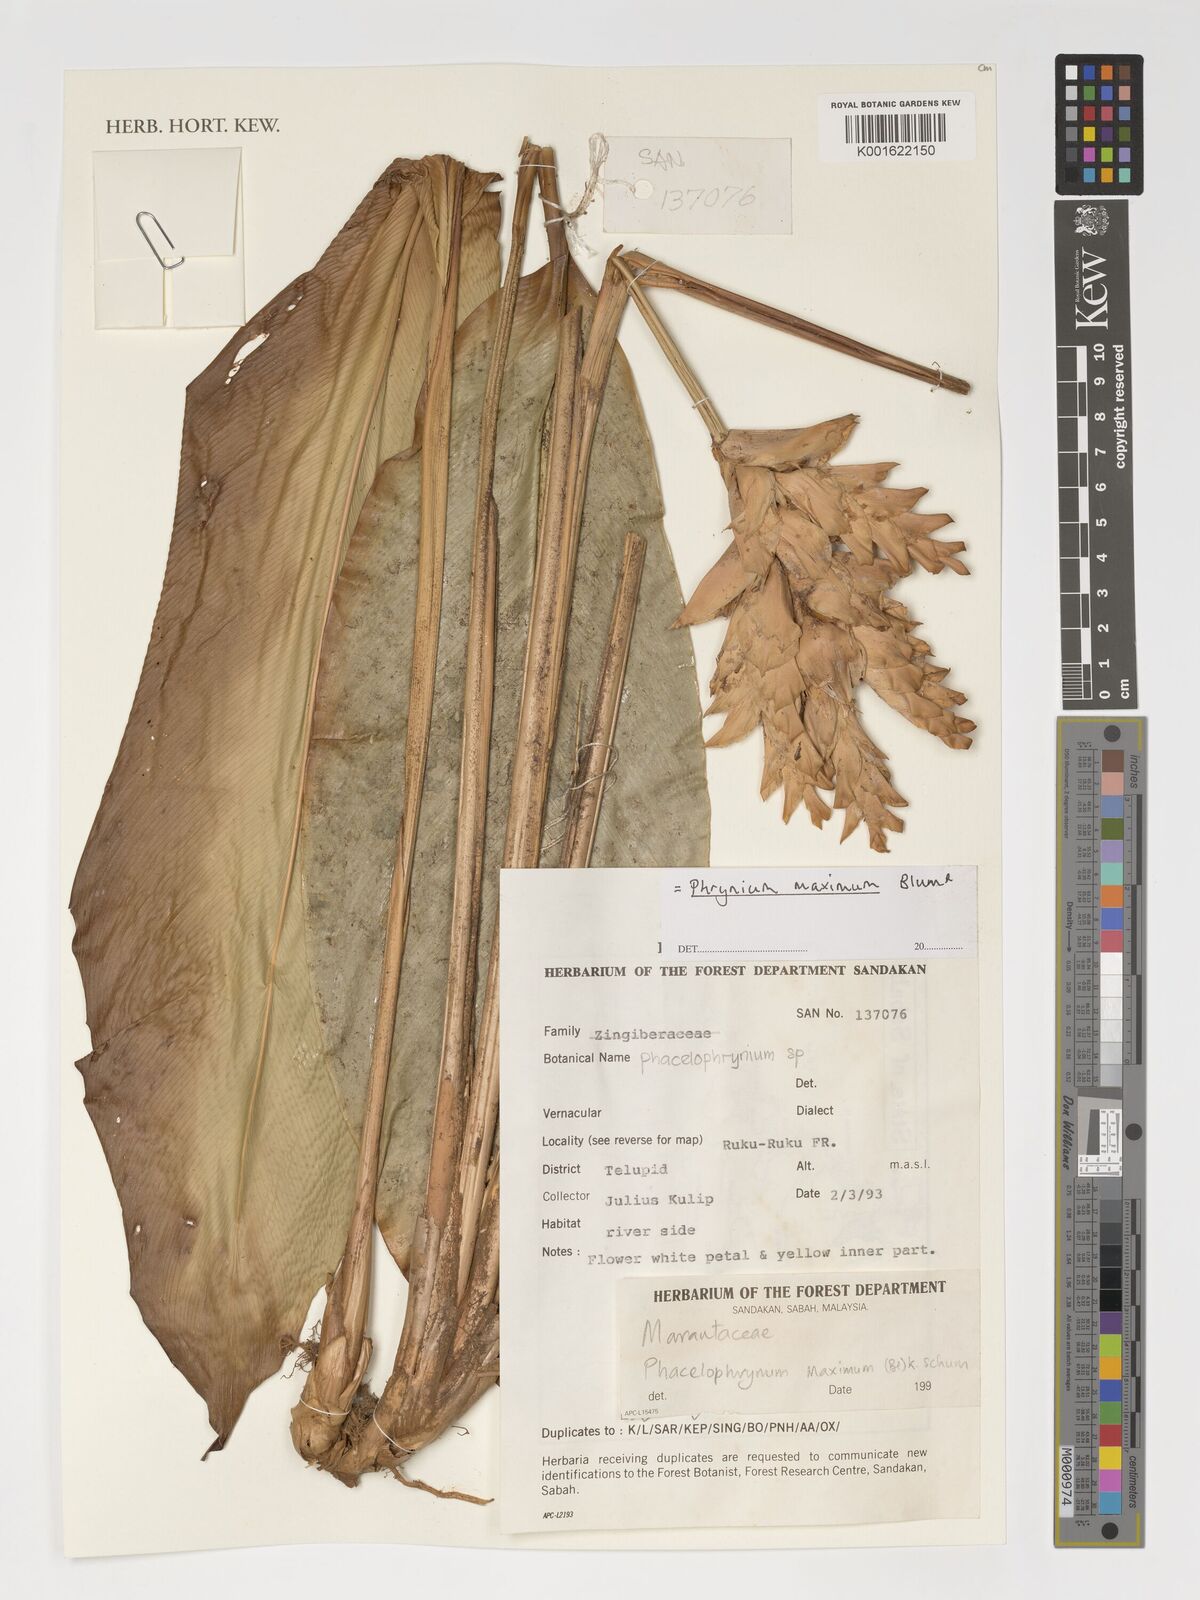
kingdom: Plantae
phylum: Tracheophyta
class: Liliopsida
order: Zingiberales
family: Marantaceae
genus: Phrynium
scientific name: Phrynium maximum
